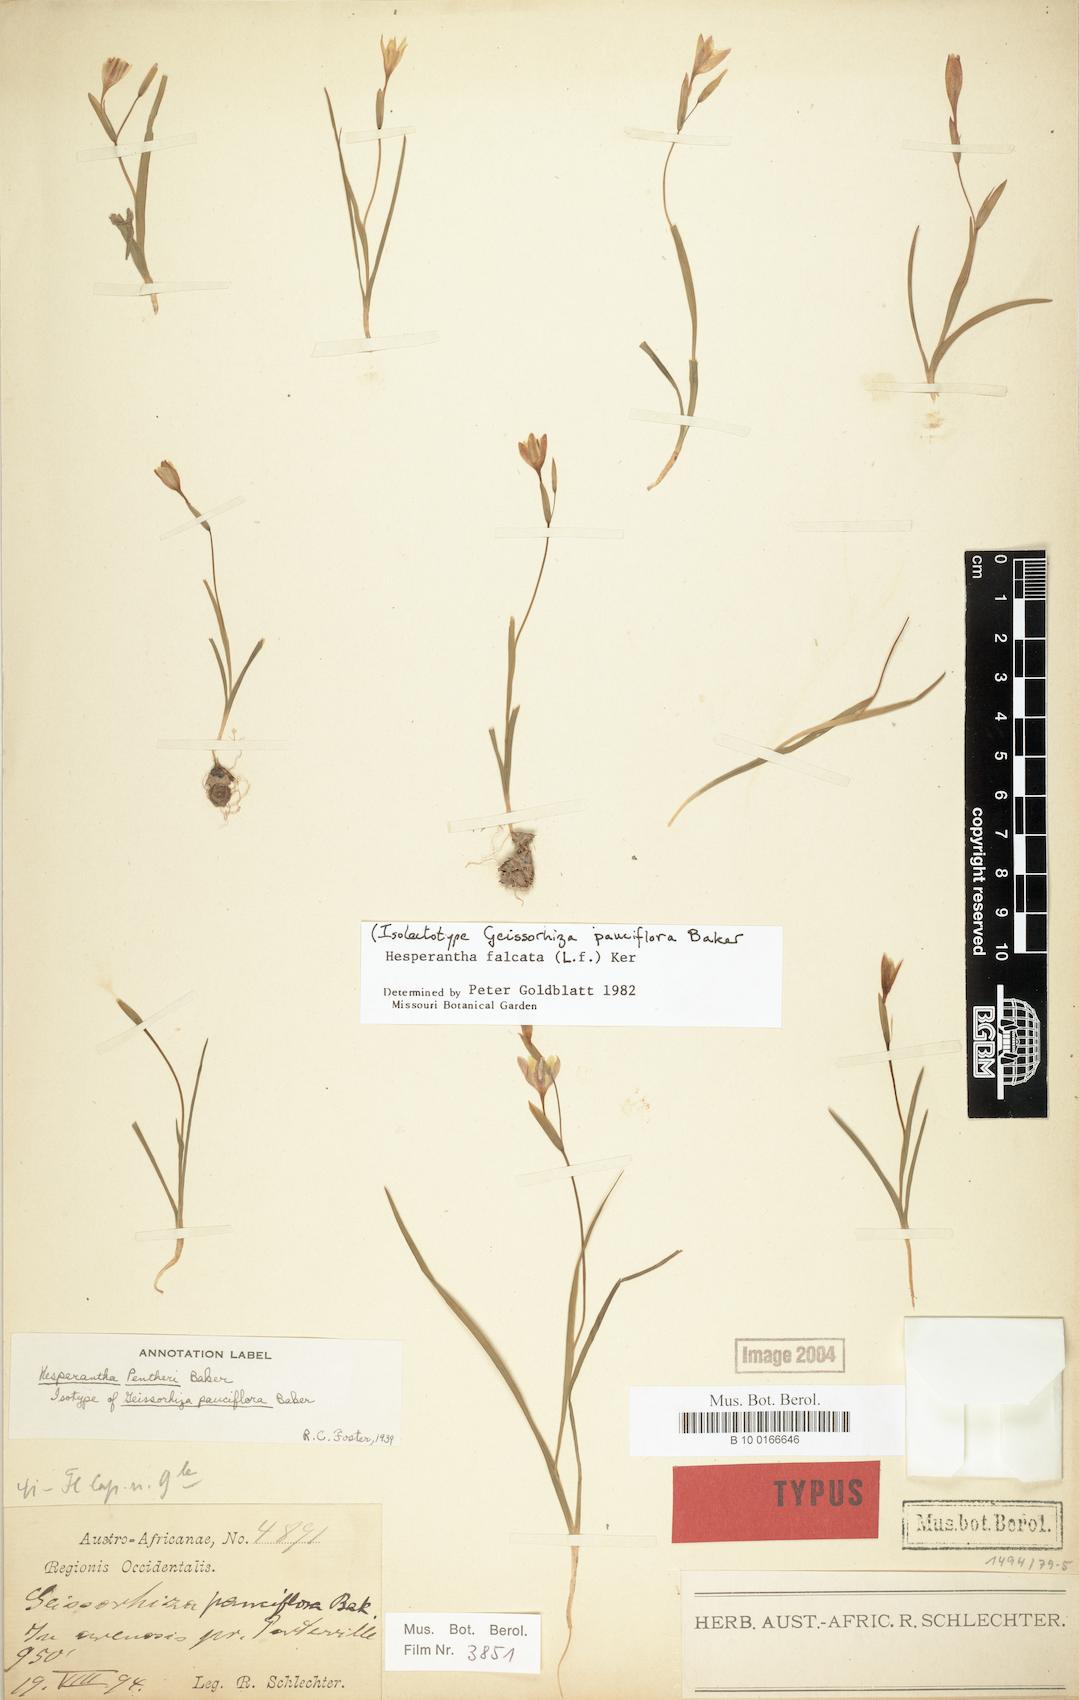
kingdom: Plantae
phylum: Tracheophyta
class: Liliopsida
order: Asparagales
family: Iridaceae
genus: Hesperantha
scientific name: Hesperantha falcata
